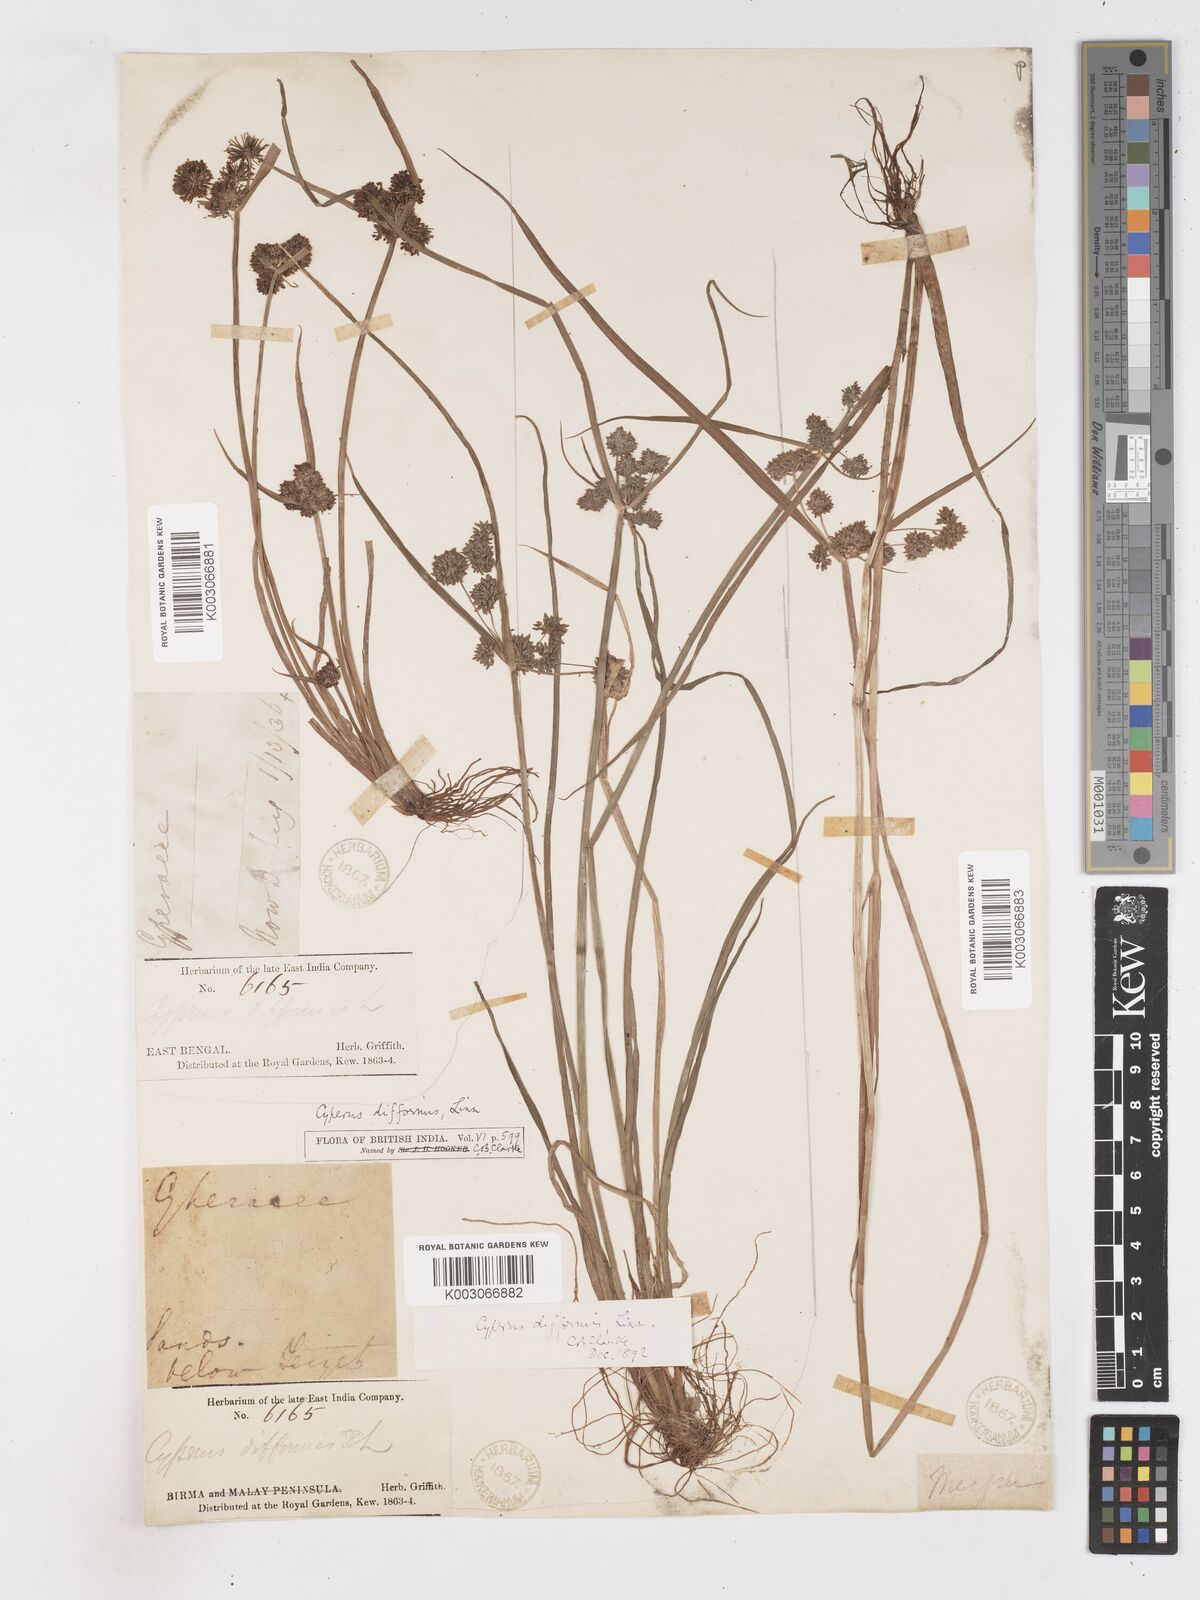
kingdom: Plantae
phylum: Tracheophyta
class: Liliopsida
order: Poales
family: Cyperaceae
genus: Cyperus
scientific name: Cyperus difformis
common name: Variable flatsedge
